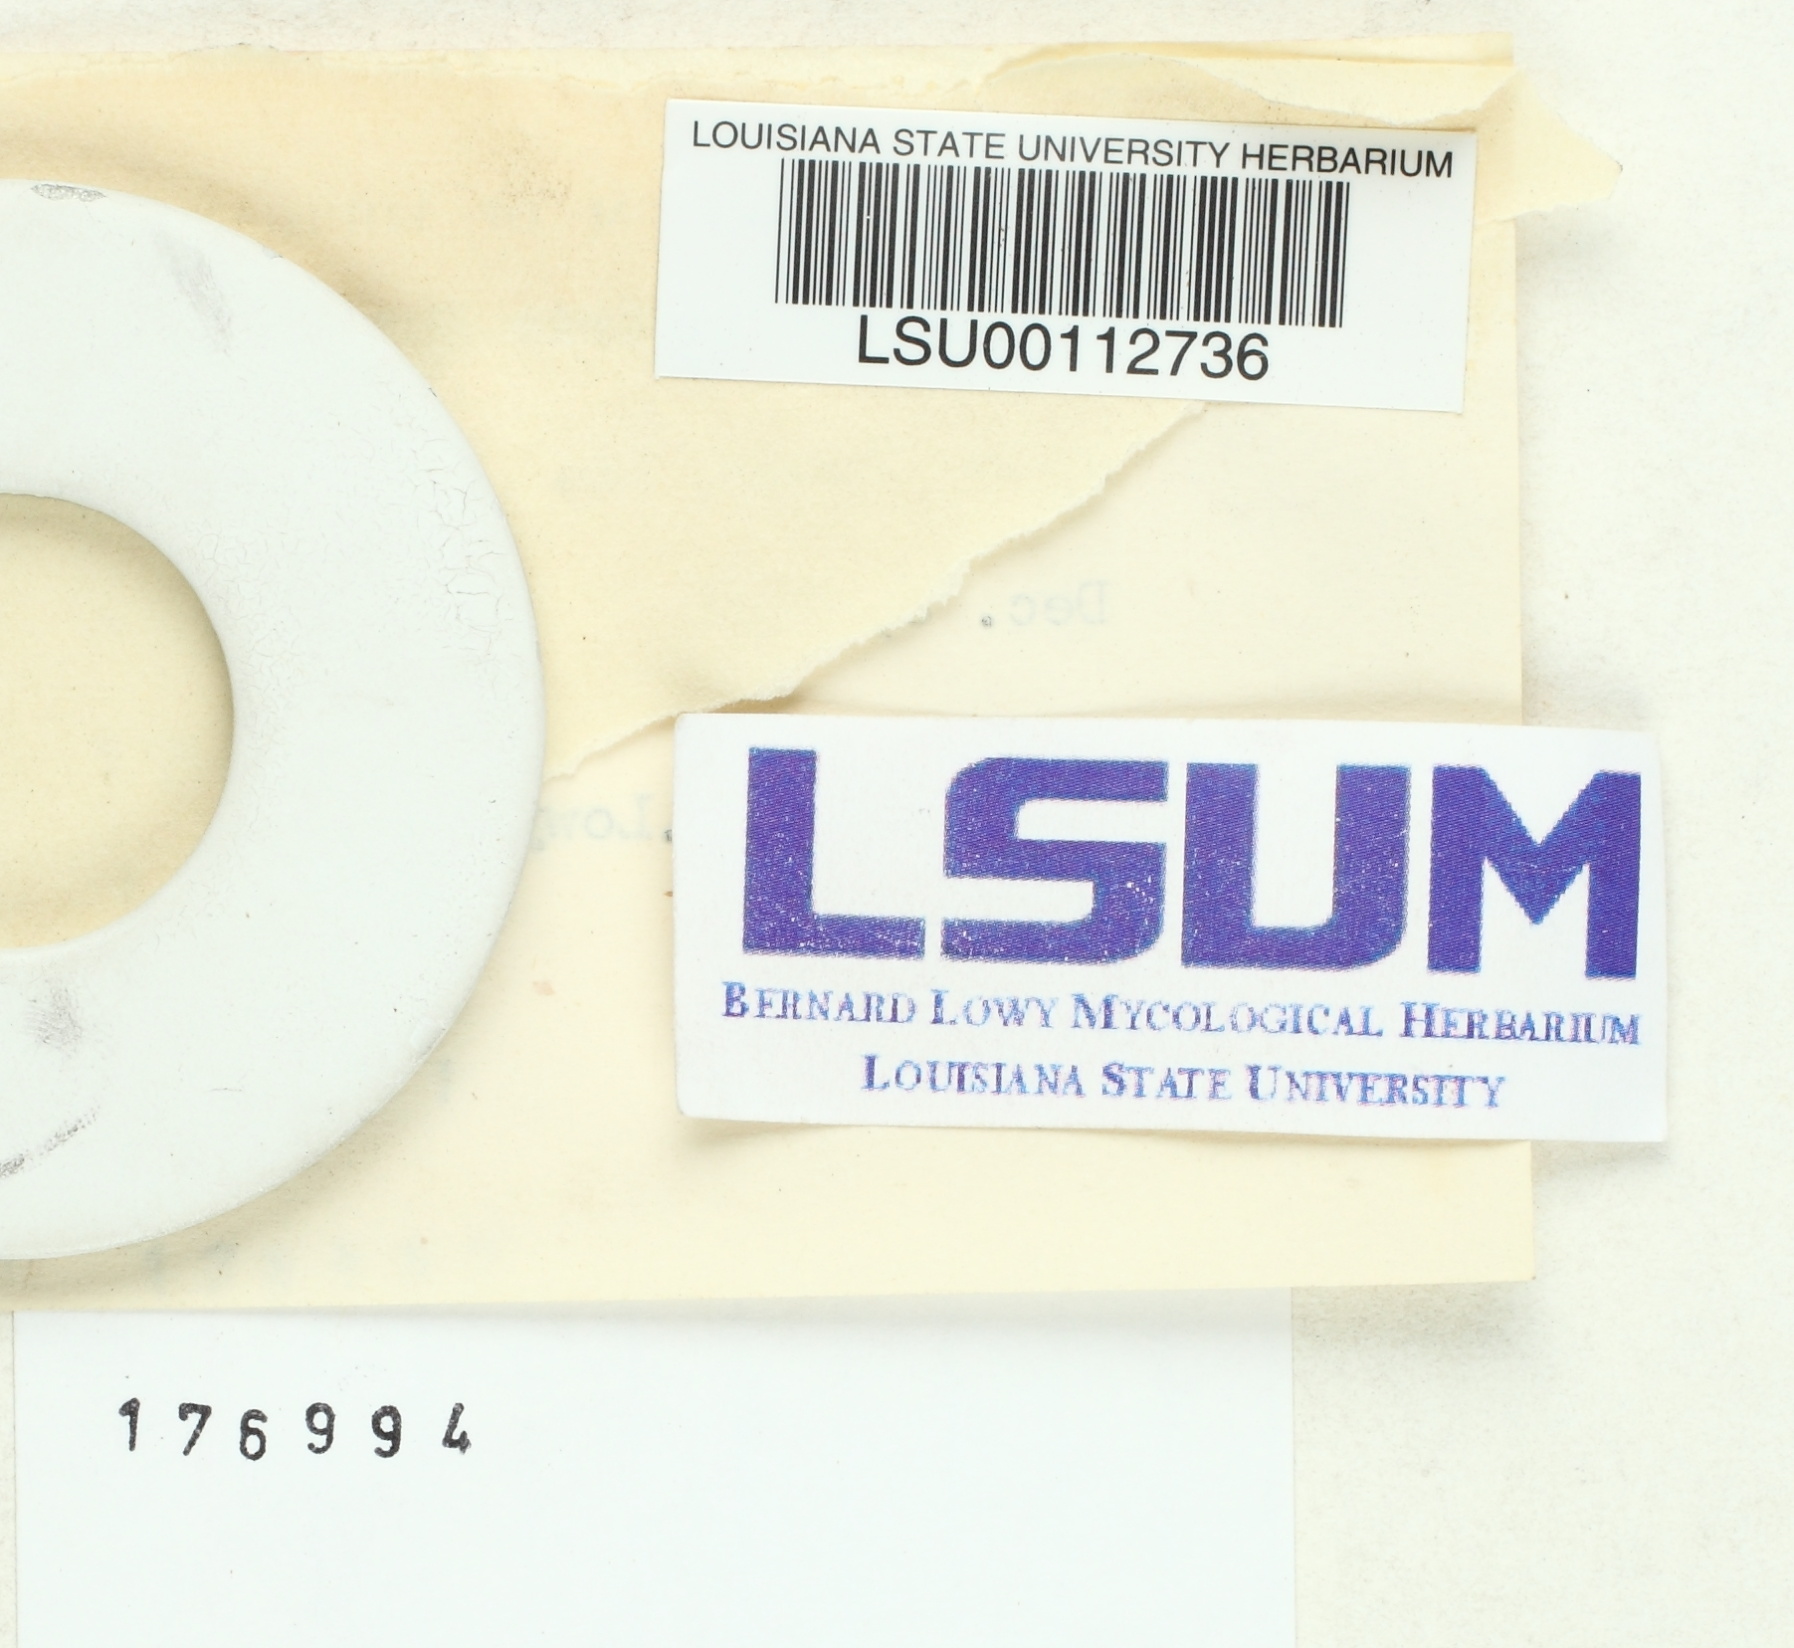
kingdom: Fungi
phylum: Basidiomycota
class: Agaricomycetes
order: Thelephorales
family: Thelephoraceae
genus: Thelephora
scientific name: Thelephora terrestris
